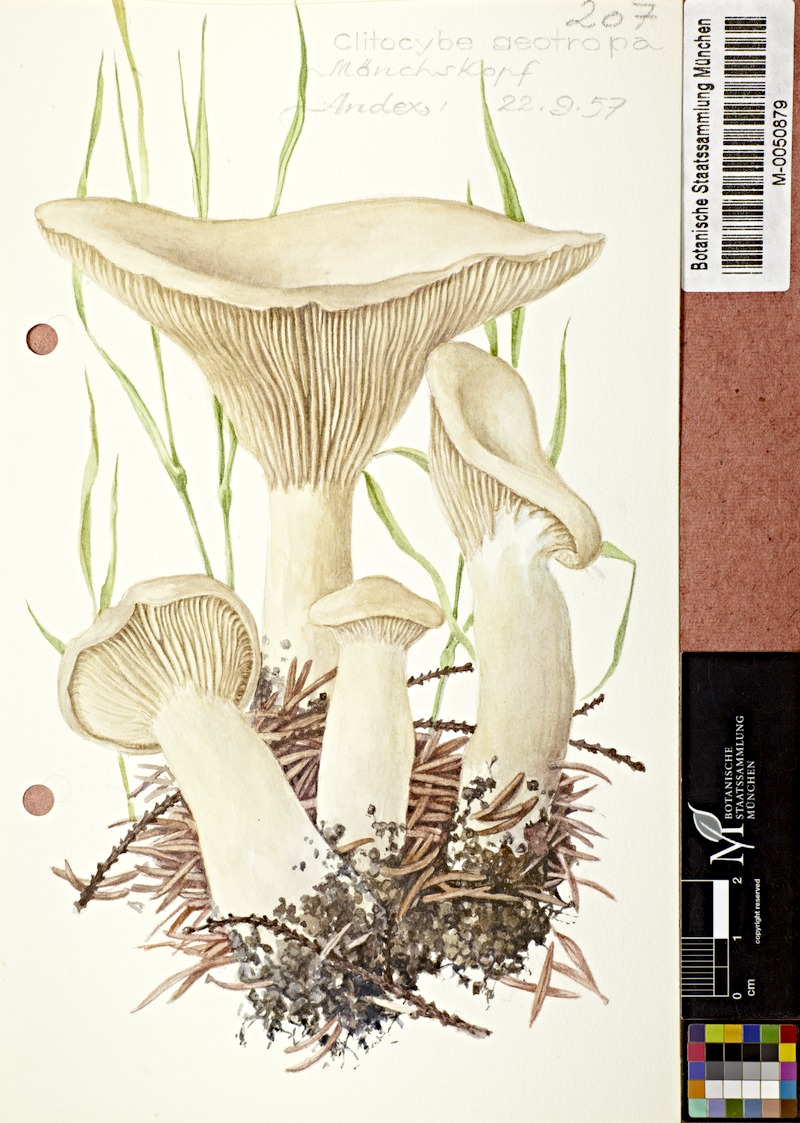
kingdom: Fungi
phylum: Basidiomycota
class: Agaricomycetes
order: Agaricales
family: Tricholomataceae
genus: Infundibulicybe
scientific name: Infundibulicybe geotropa
